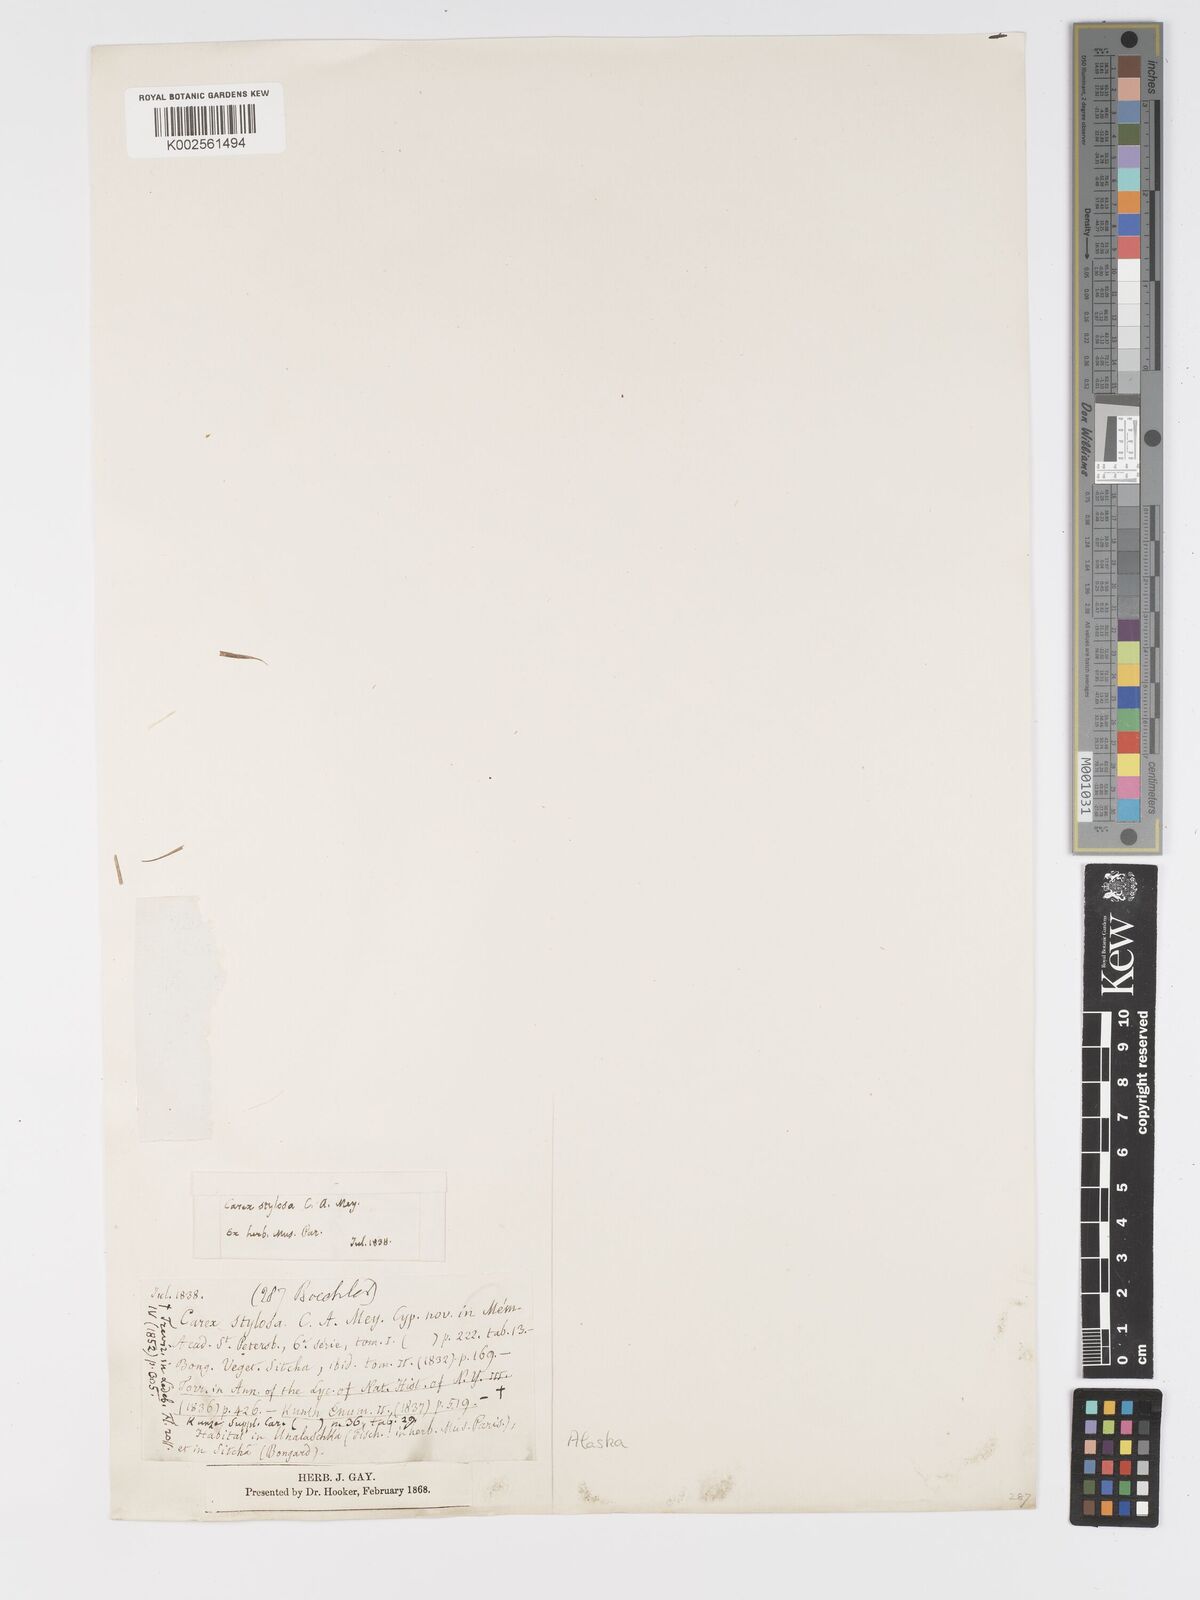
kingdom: Plantae
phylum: Tracheophyta
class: Liliopsida
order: Poales
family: Cyperaceae
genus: Carex
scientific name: Carex stylosa
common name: Long-styled sedge
